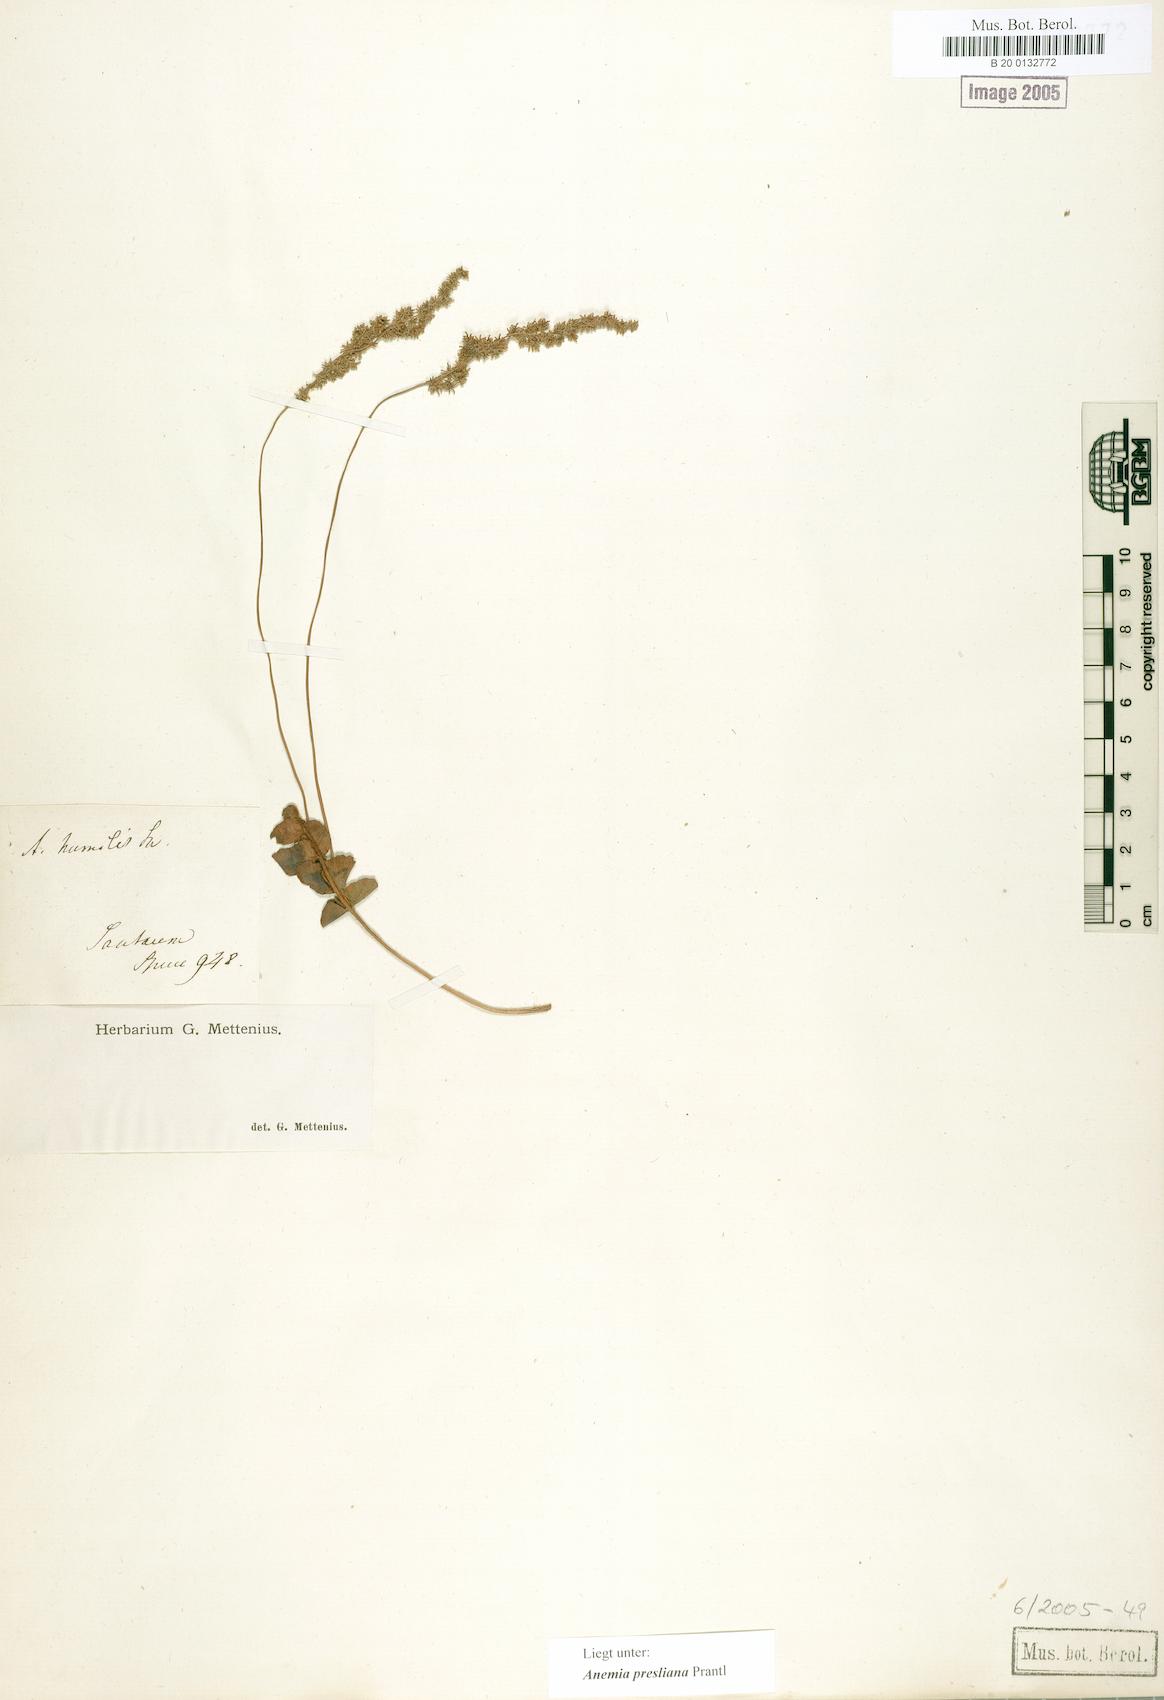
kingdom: Plantae
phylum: Tracheophyta
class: Polypodiopsida
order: Schizaeales
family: Anemiaceae
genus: Anemia
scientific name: Anemia presliana
